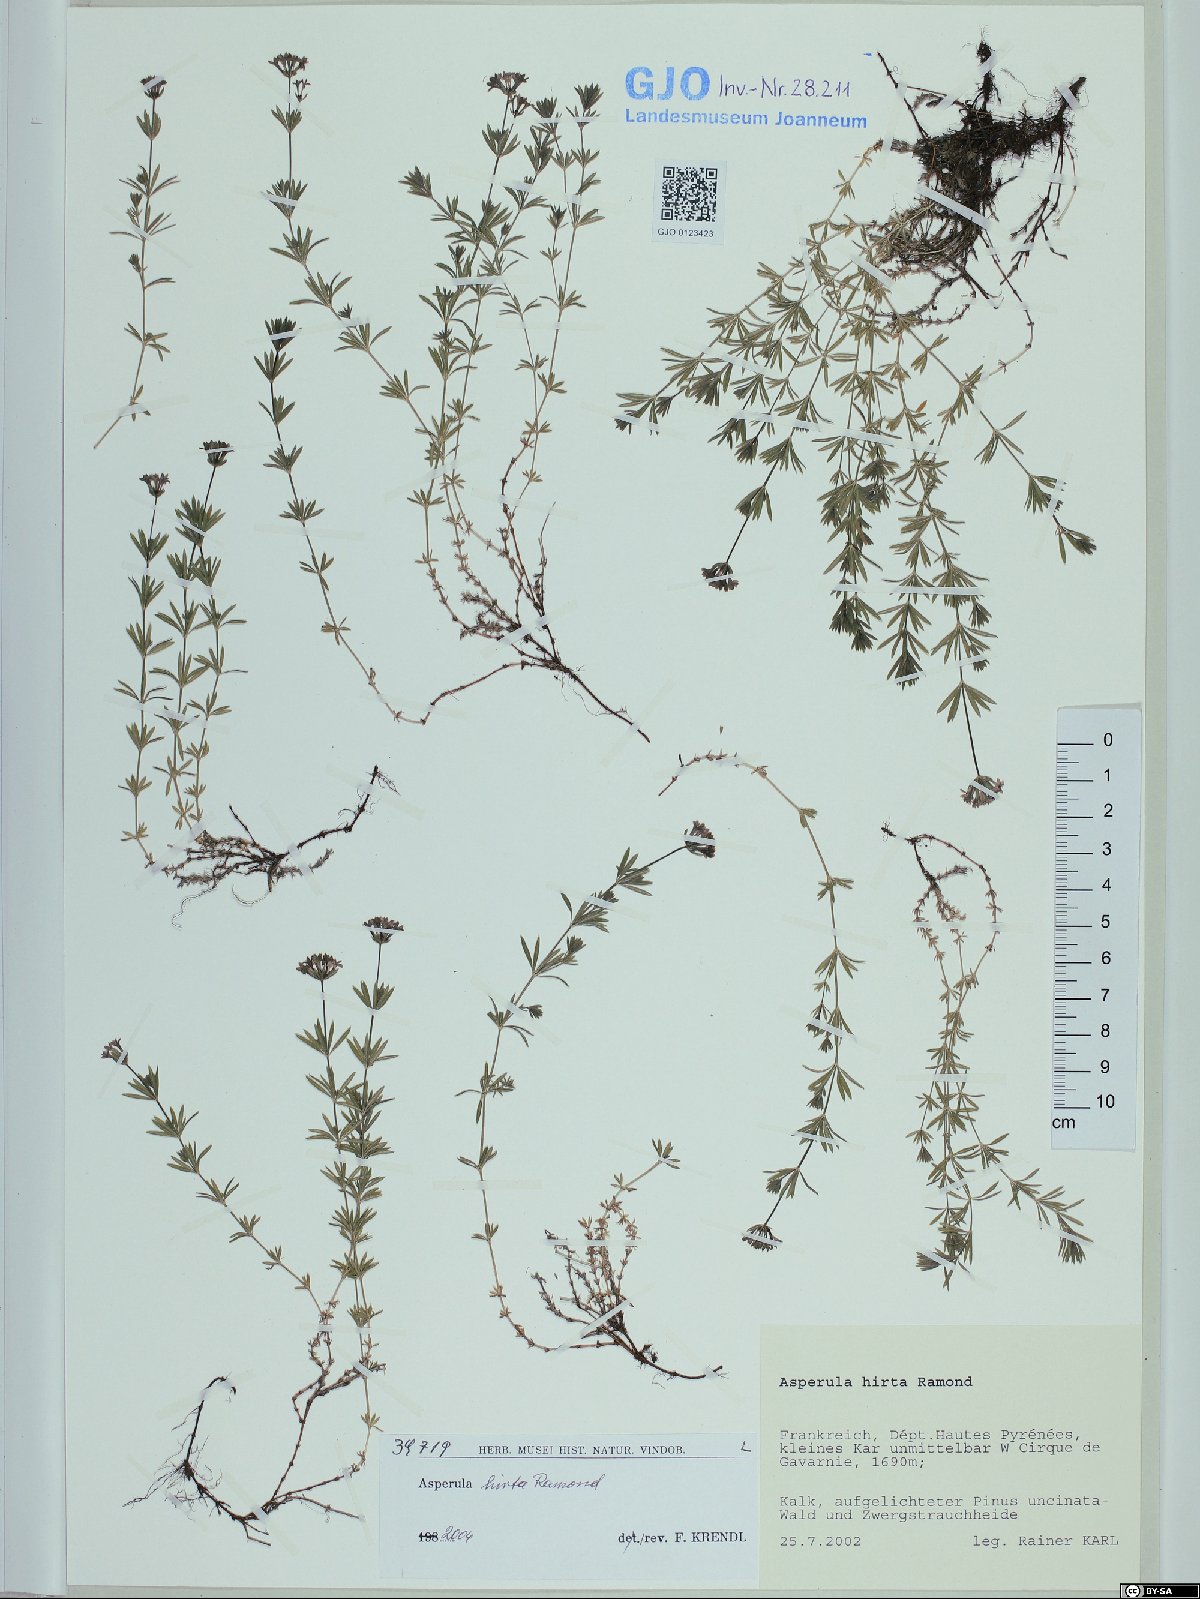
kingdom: Plantae
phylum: Tracheophyta
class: Magnoliopsida
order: Gentianales
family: Rubiaceae
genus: Hexaphylla
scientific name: Hexaphylla hirta
